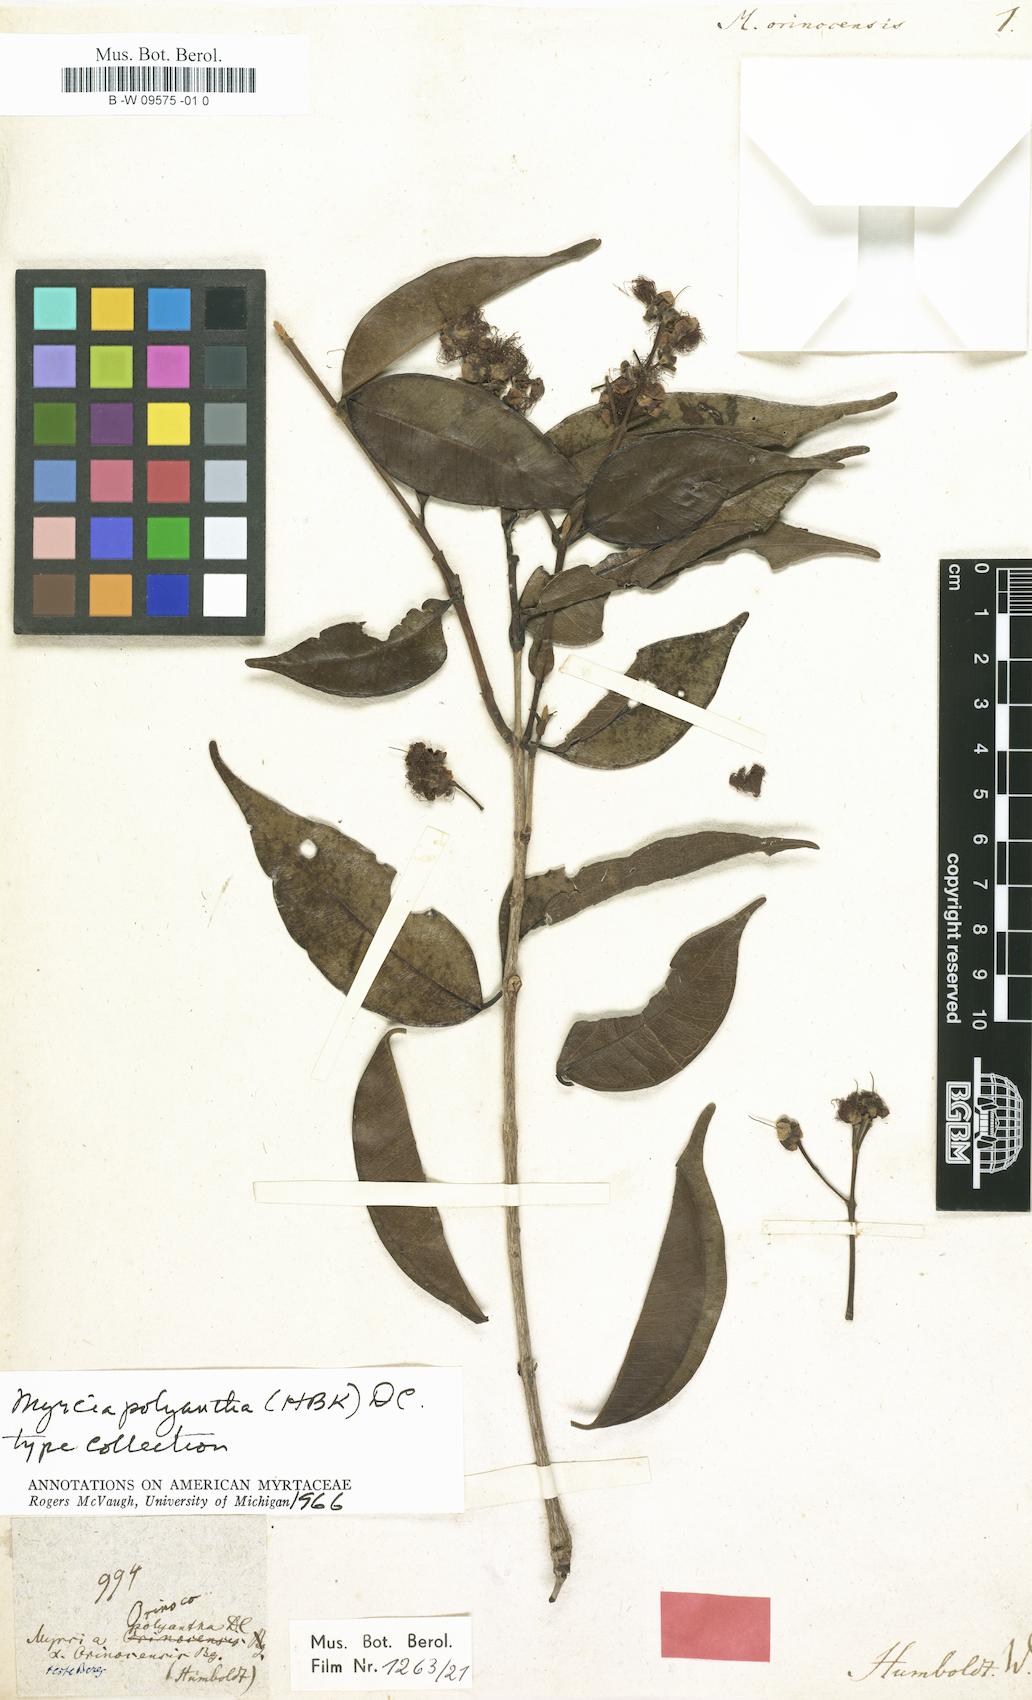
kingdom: Plantae
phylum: Tracheophyta
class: Magnoliopsida
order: Myrtales
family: Myrtaceae
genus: Myrtus
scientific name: Myrtus orinocensis
